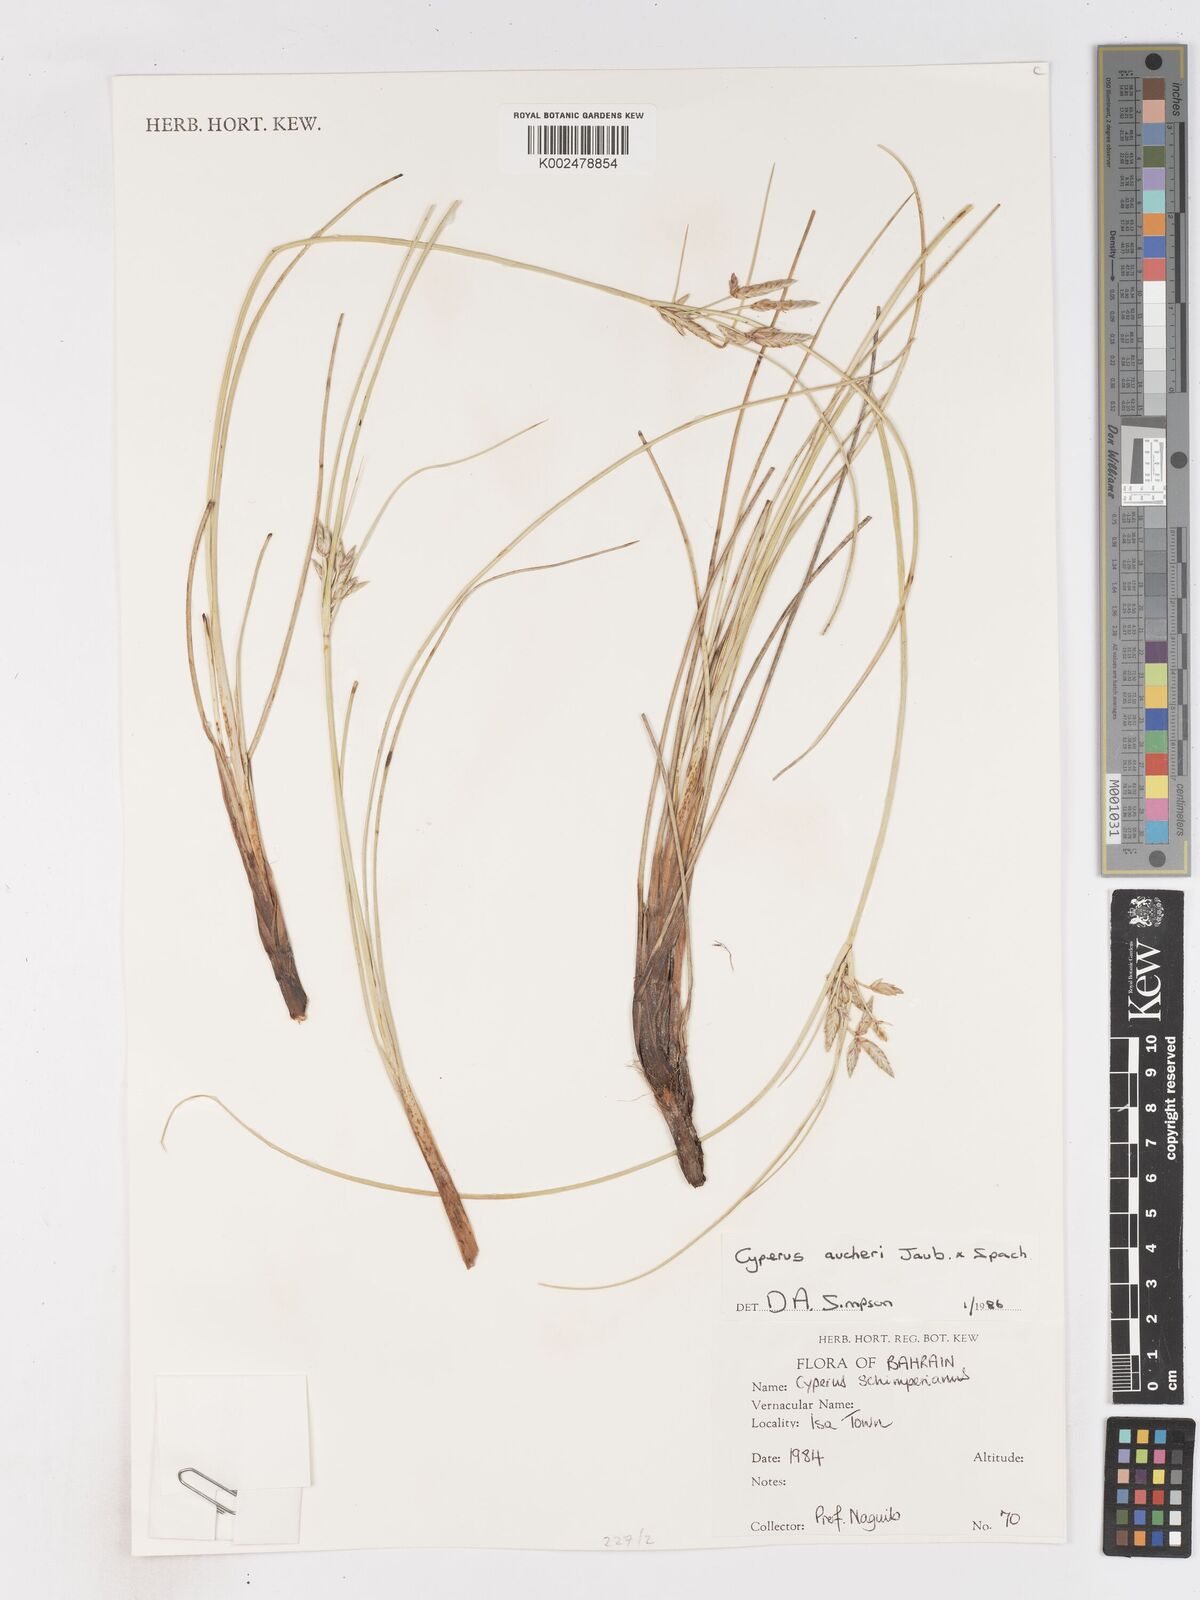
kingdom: Plantae
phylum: Tracheophyta
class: Liliopsida
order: Poales
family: Cyperaceae
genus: Cyperus
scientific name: Cyperus aucheri
